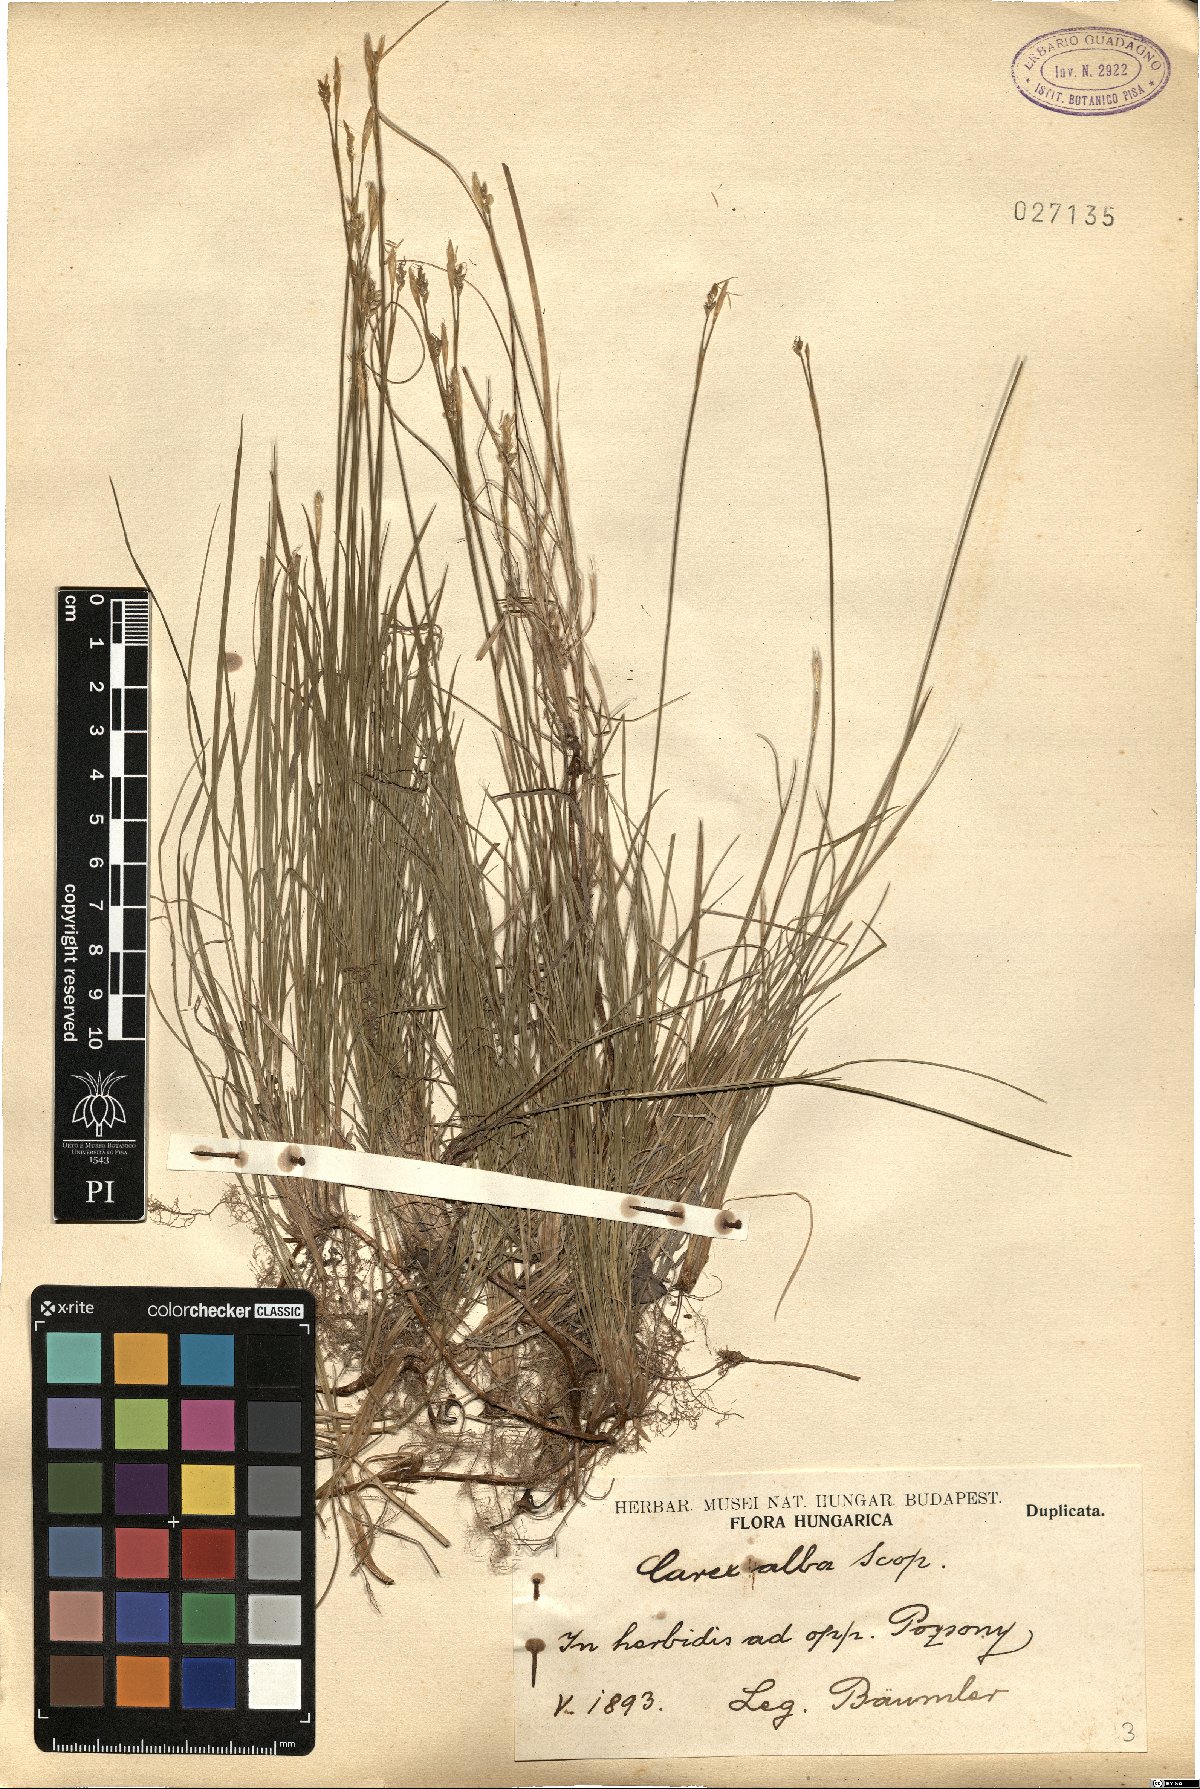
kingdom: Plantae
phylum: Tracheophyta
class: Liliopsida
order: Poales
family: Cyperaceae
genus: Carex
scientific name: Carex alba
